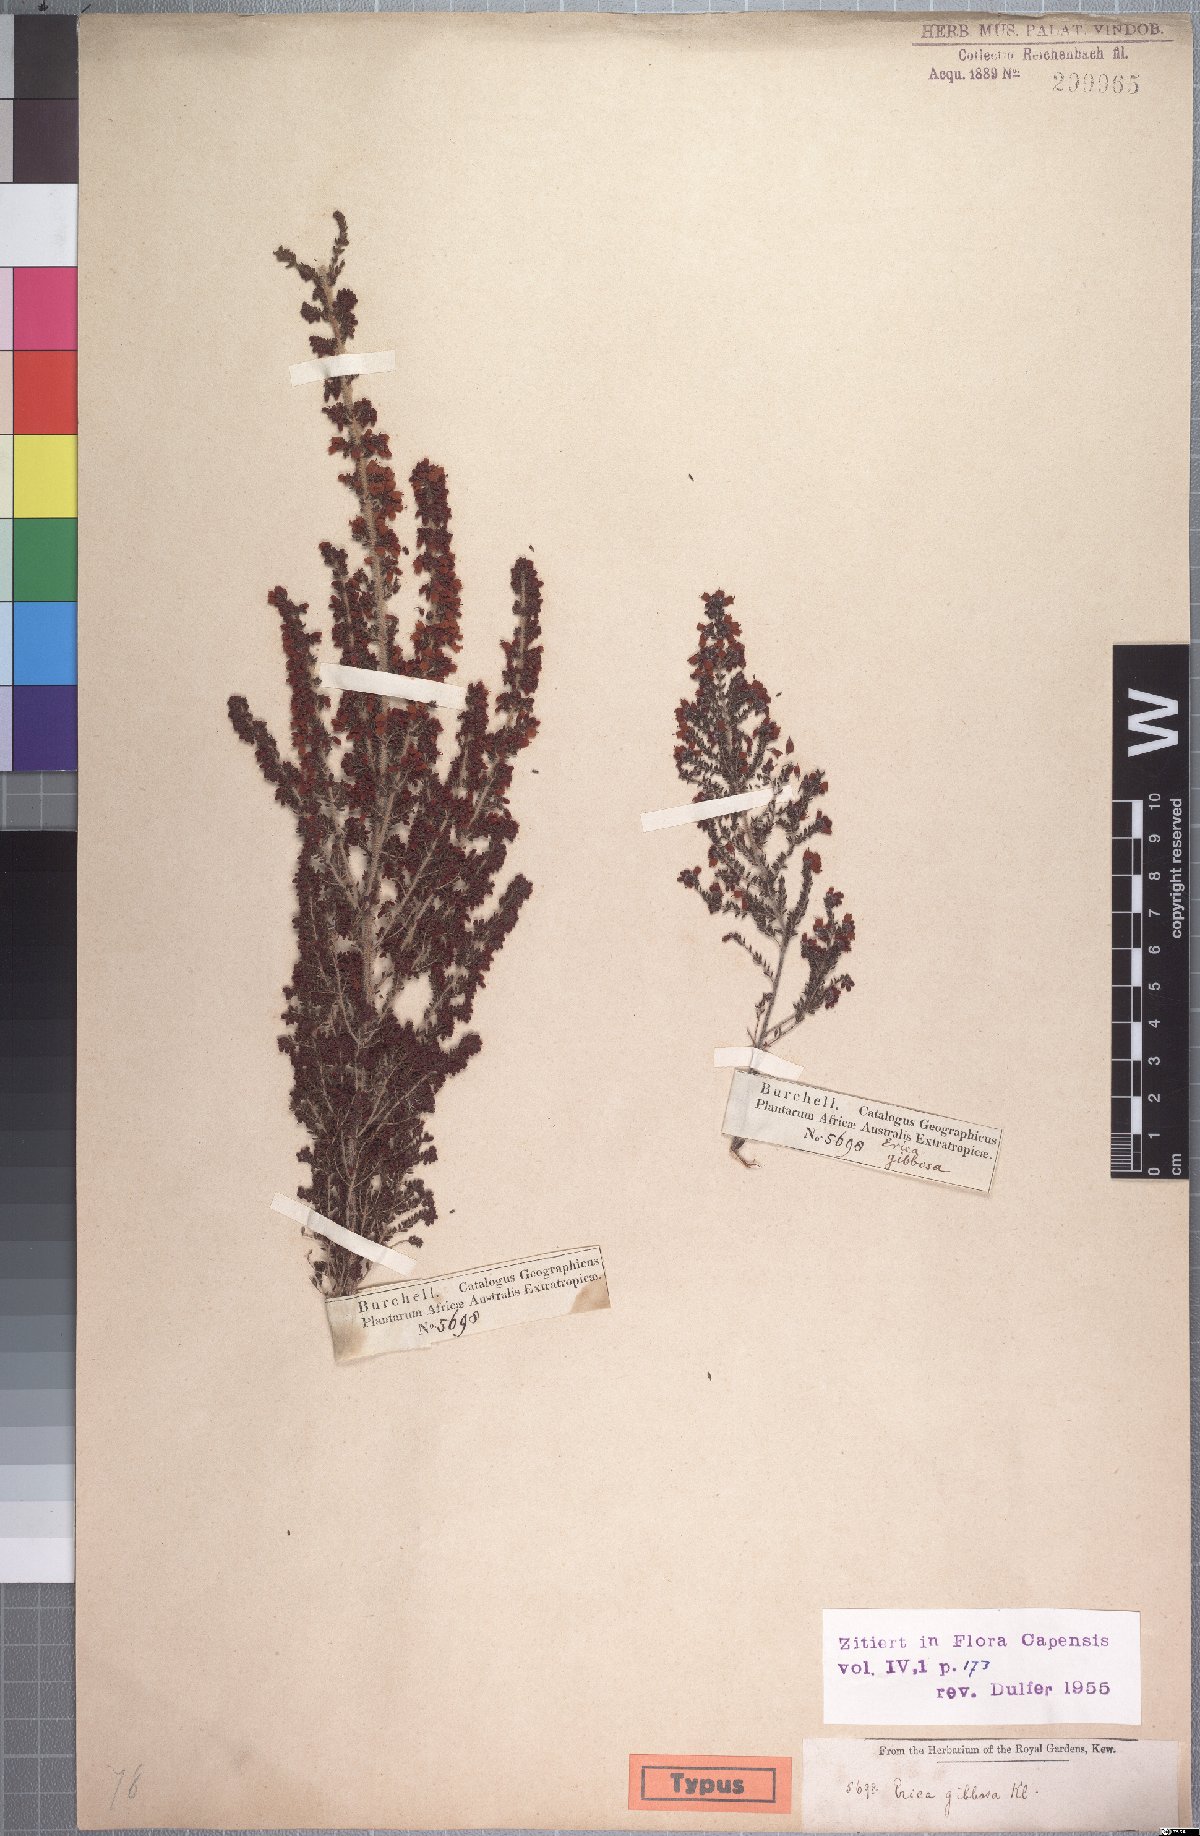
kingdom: Plantae
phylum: Tracheophyta
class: Magnoliopsida
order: Ericales
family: Ericaceae
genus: Erica
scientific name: Erica scabriuscula
